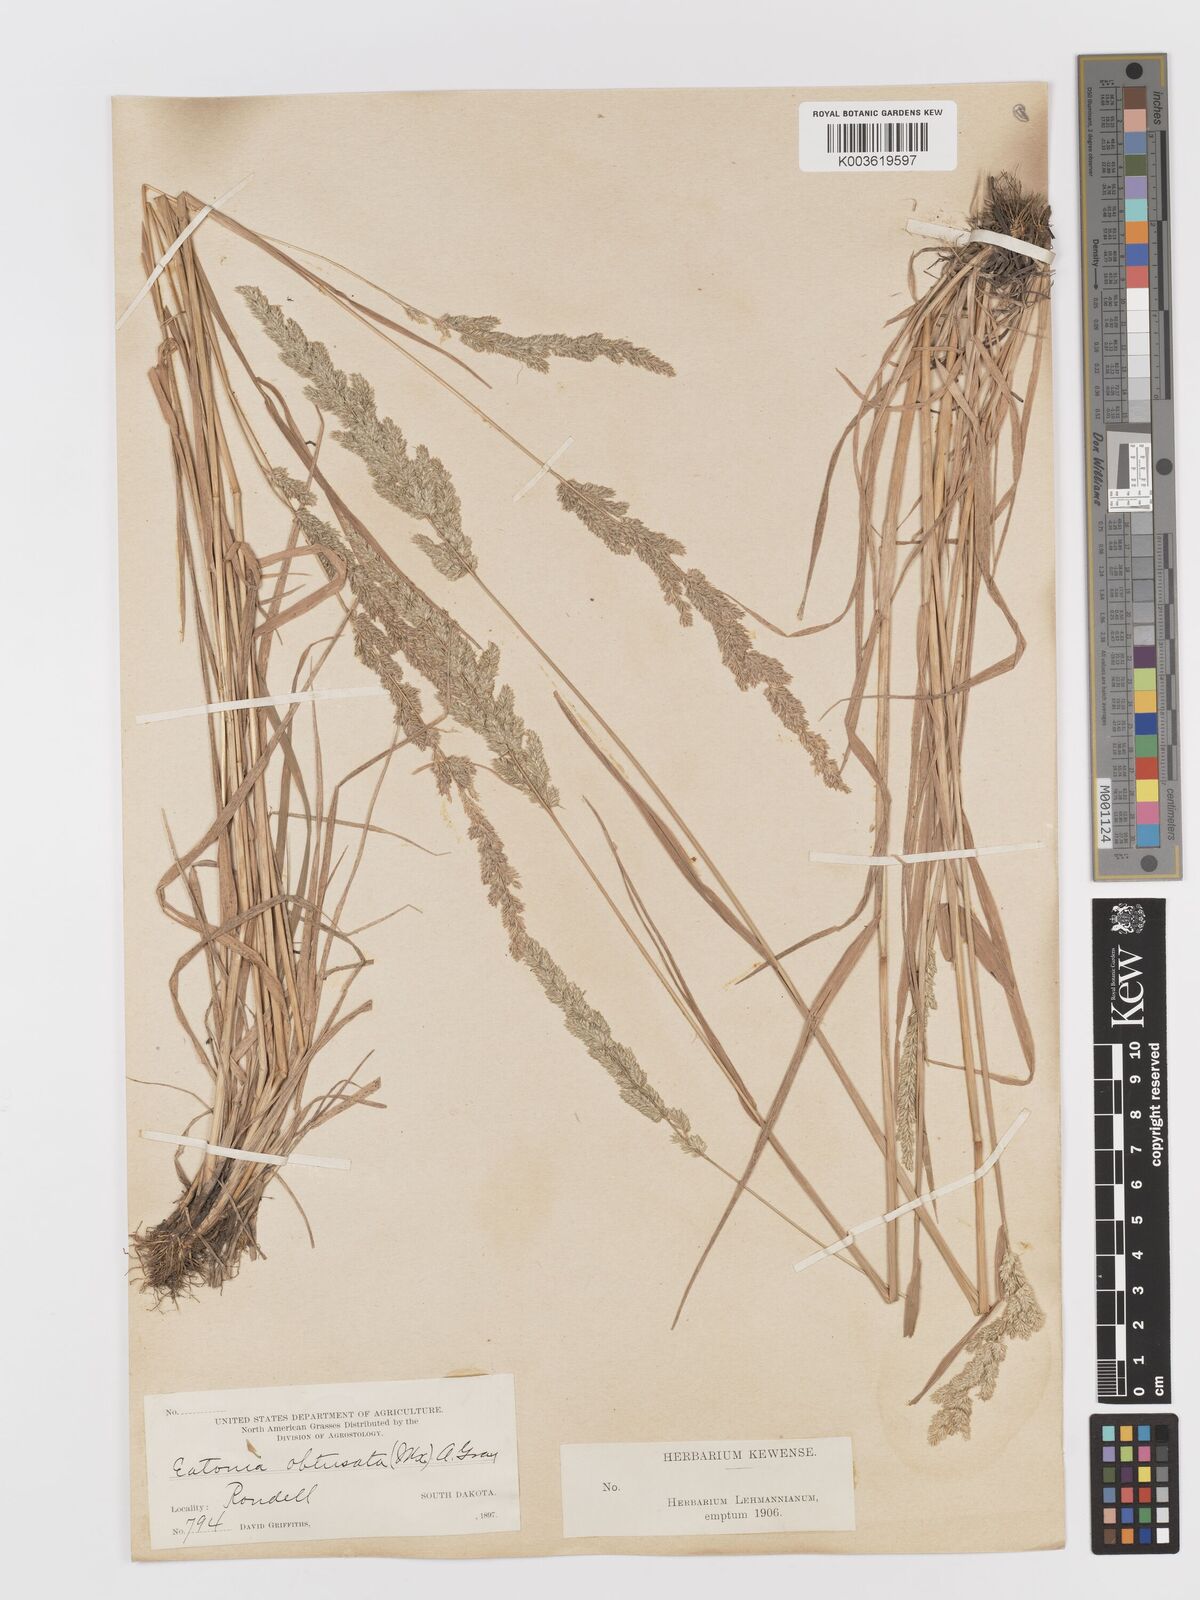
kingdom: Plantae
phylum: Tracheophyta
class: Liliopsida
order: Poales
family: Poaceae
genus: Sphenopholis
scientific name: Sphenopholis obtusata
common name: Prairie grass
